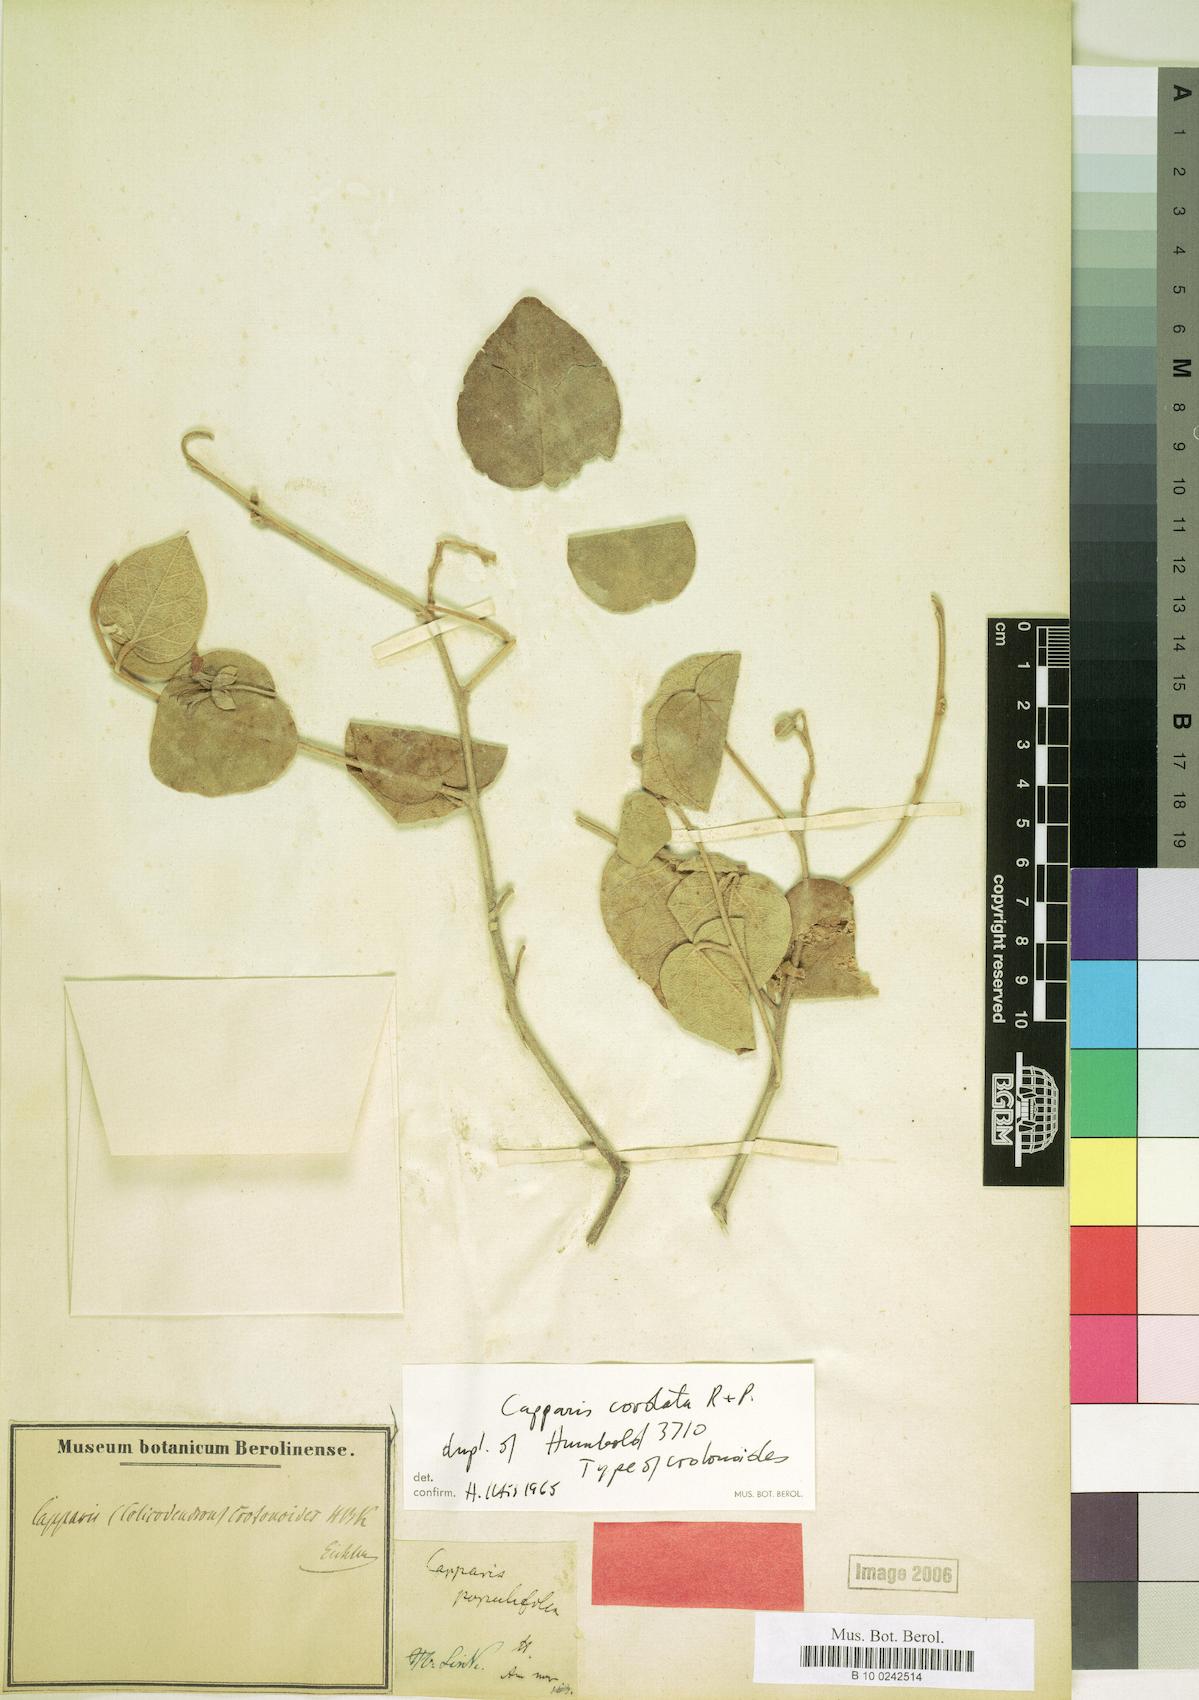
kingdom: Plantae
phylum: Tracheophyta
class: Magnoliopsida
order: Brassicales
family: Capparaceae
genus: Capparicordis
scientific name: Capparicordis crotonoides
